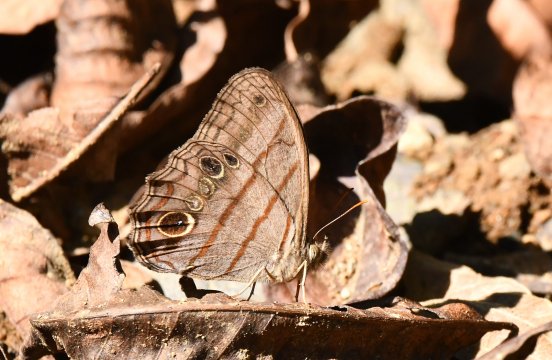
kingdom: Animalia
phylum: Arthropoda
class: Insecta
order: Lepidoptera
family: Nymphalidae
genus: Magneuptychia
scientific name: Magneuptychia libye
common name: Blue-gray Satyr
